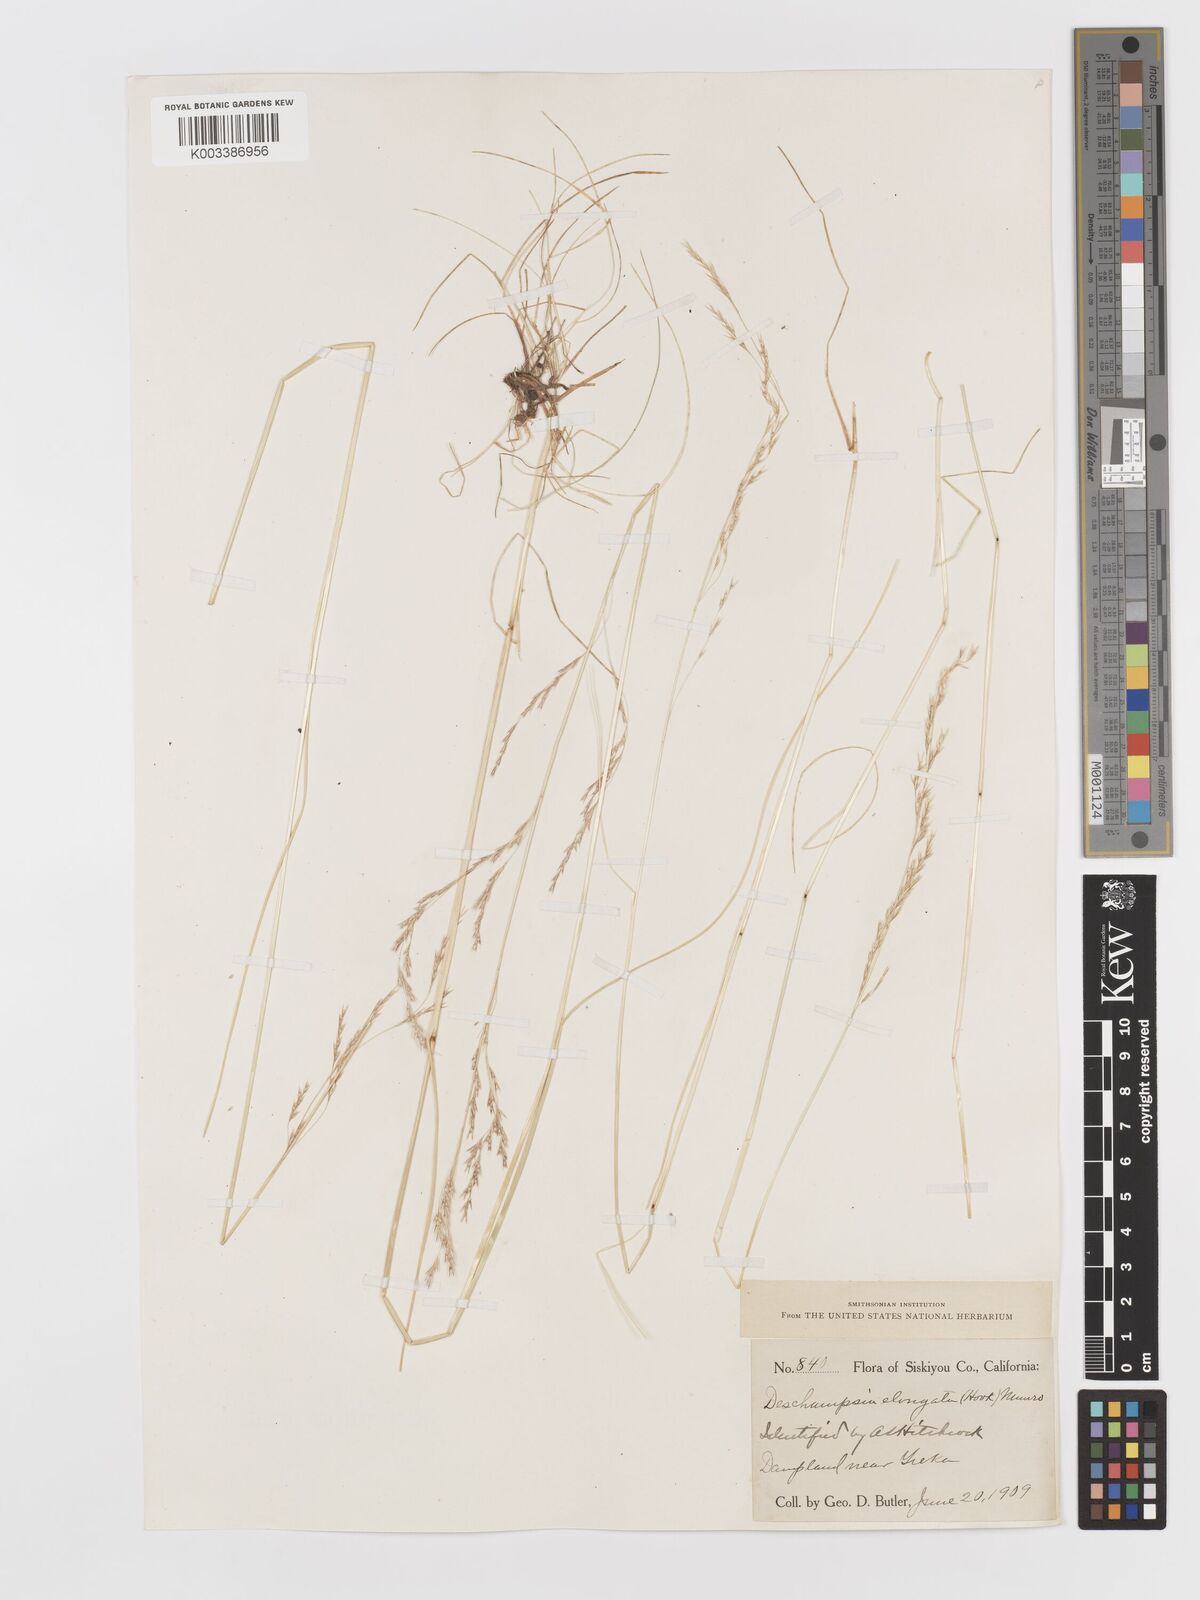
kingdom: Plantae
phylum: Tracheophyta
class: Liliopsida
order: Poales
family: Poaceae
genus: Deschampsia
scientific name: Deschampsia elongata
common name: Slender hairgrass
